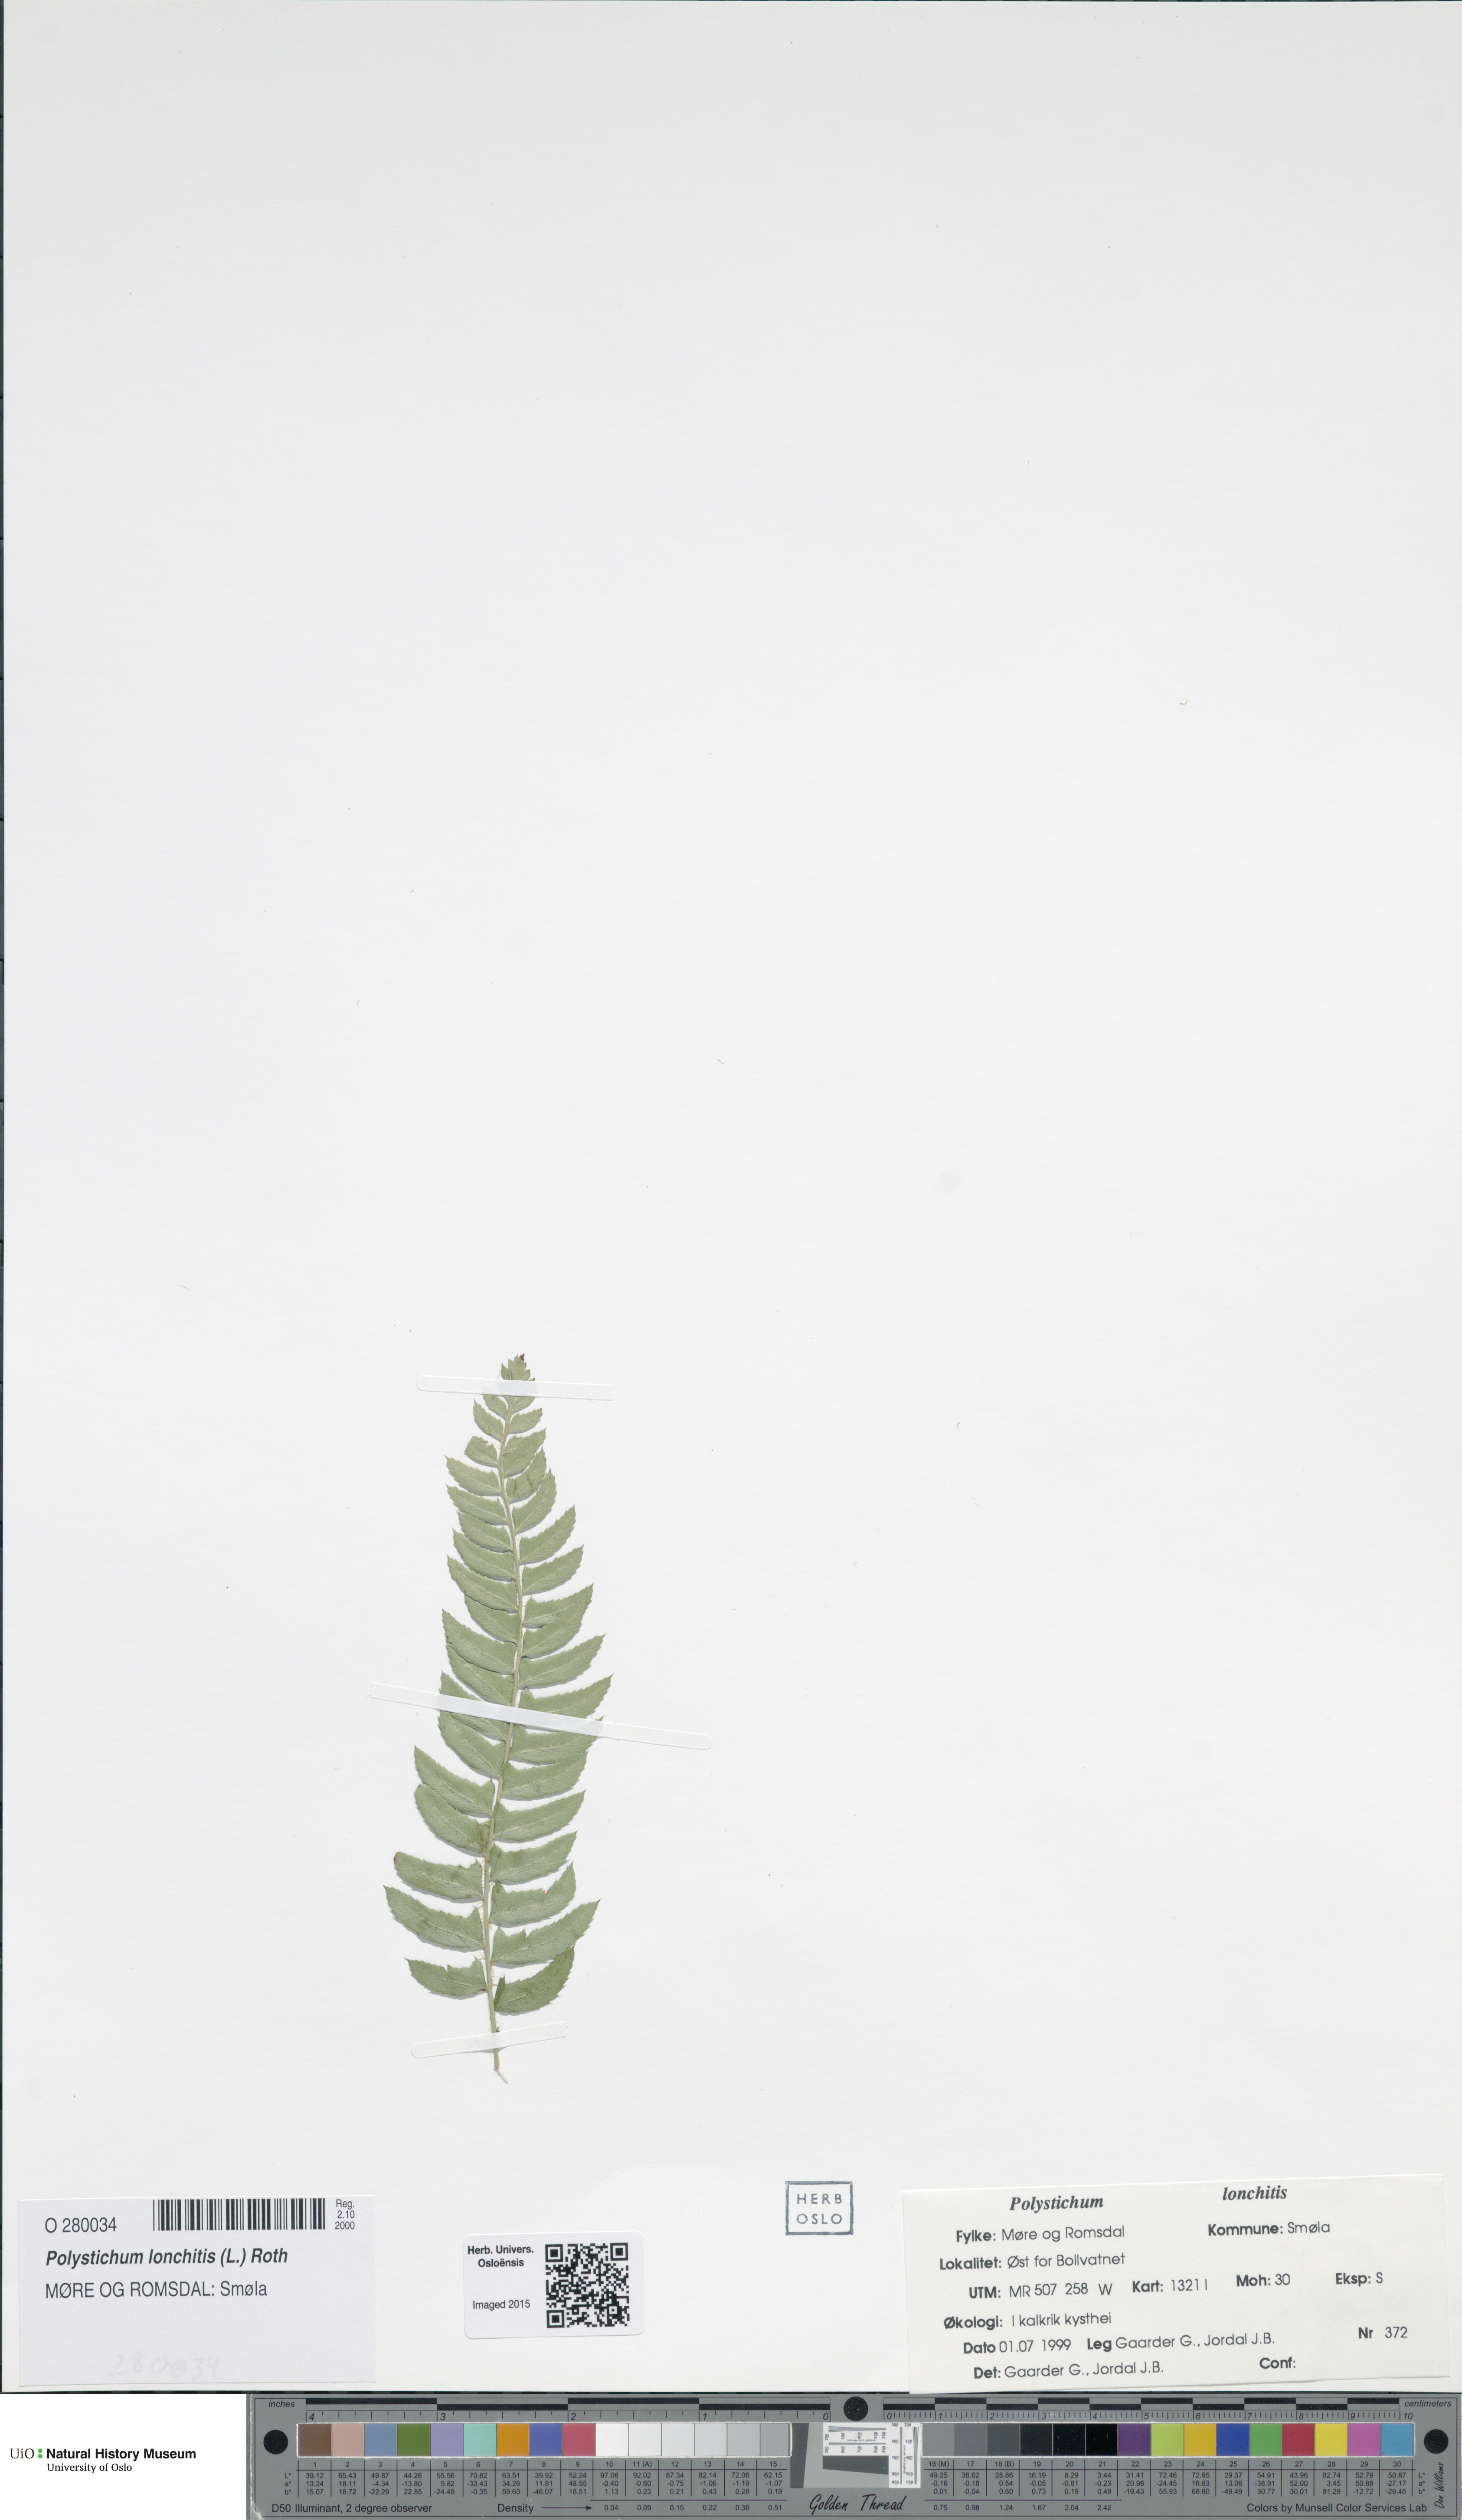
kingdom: Plantae
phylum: Tracheophyta
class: Polypodiopsida
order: Polypodiales
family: Dryopteridaceae
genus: Polystichum
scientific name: Polystichum lonchitis
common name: Holly fern
